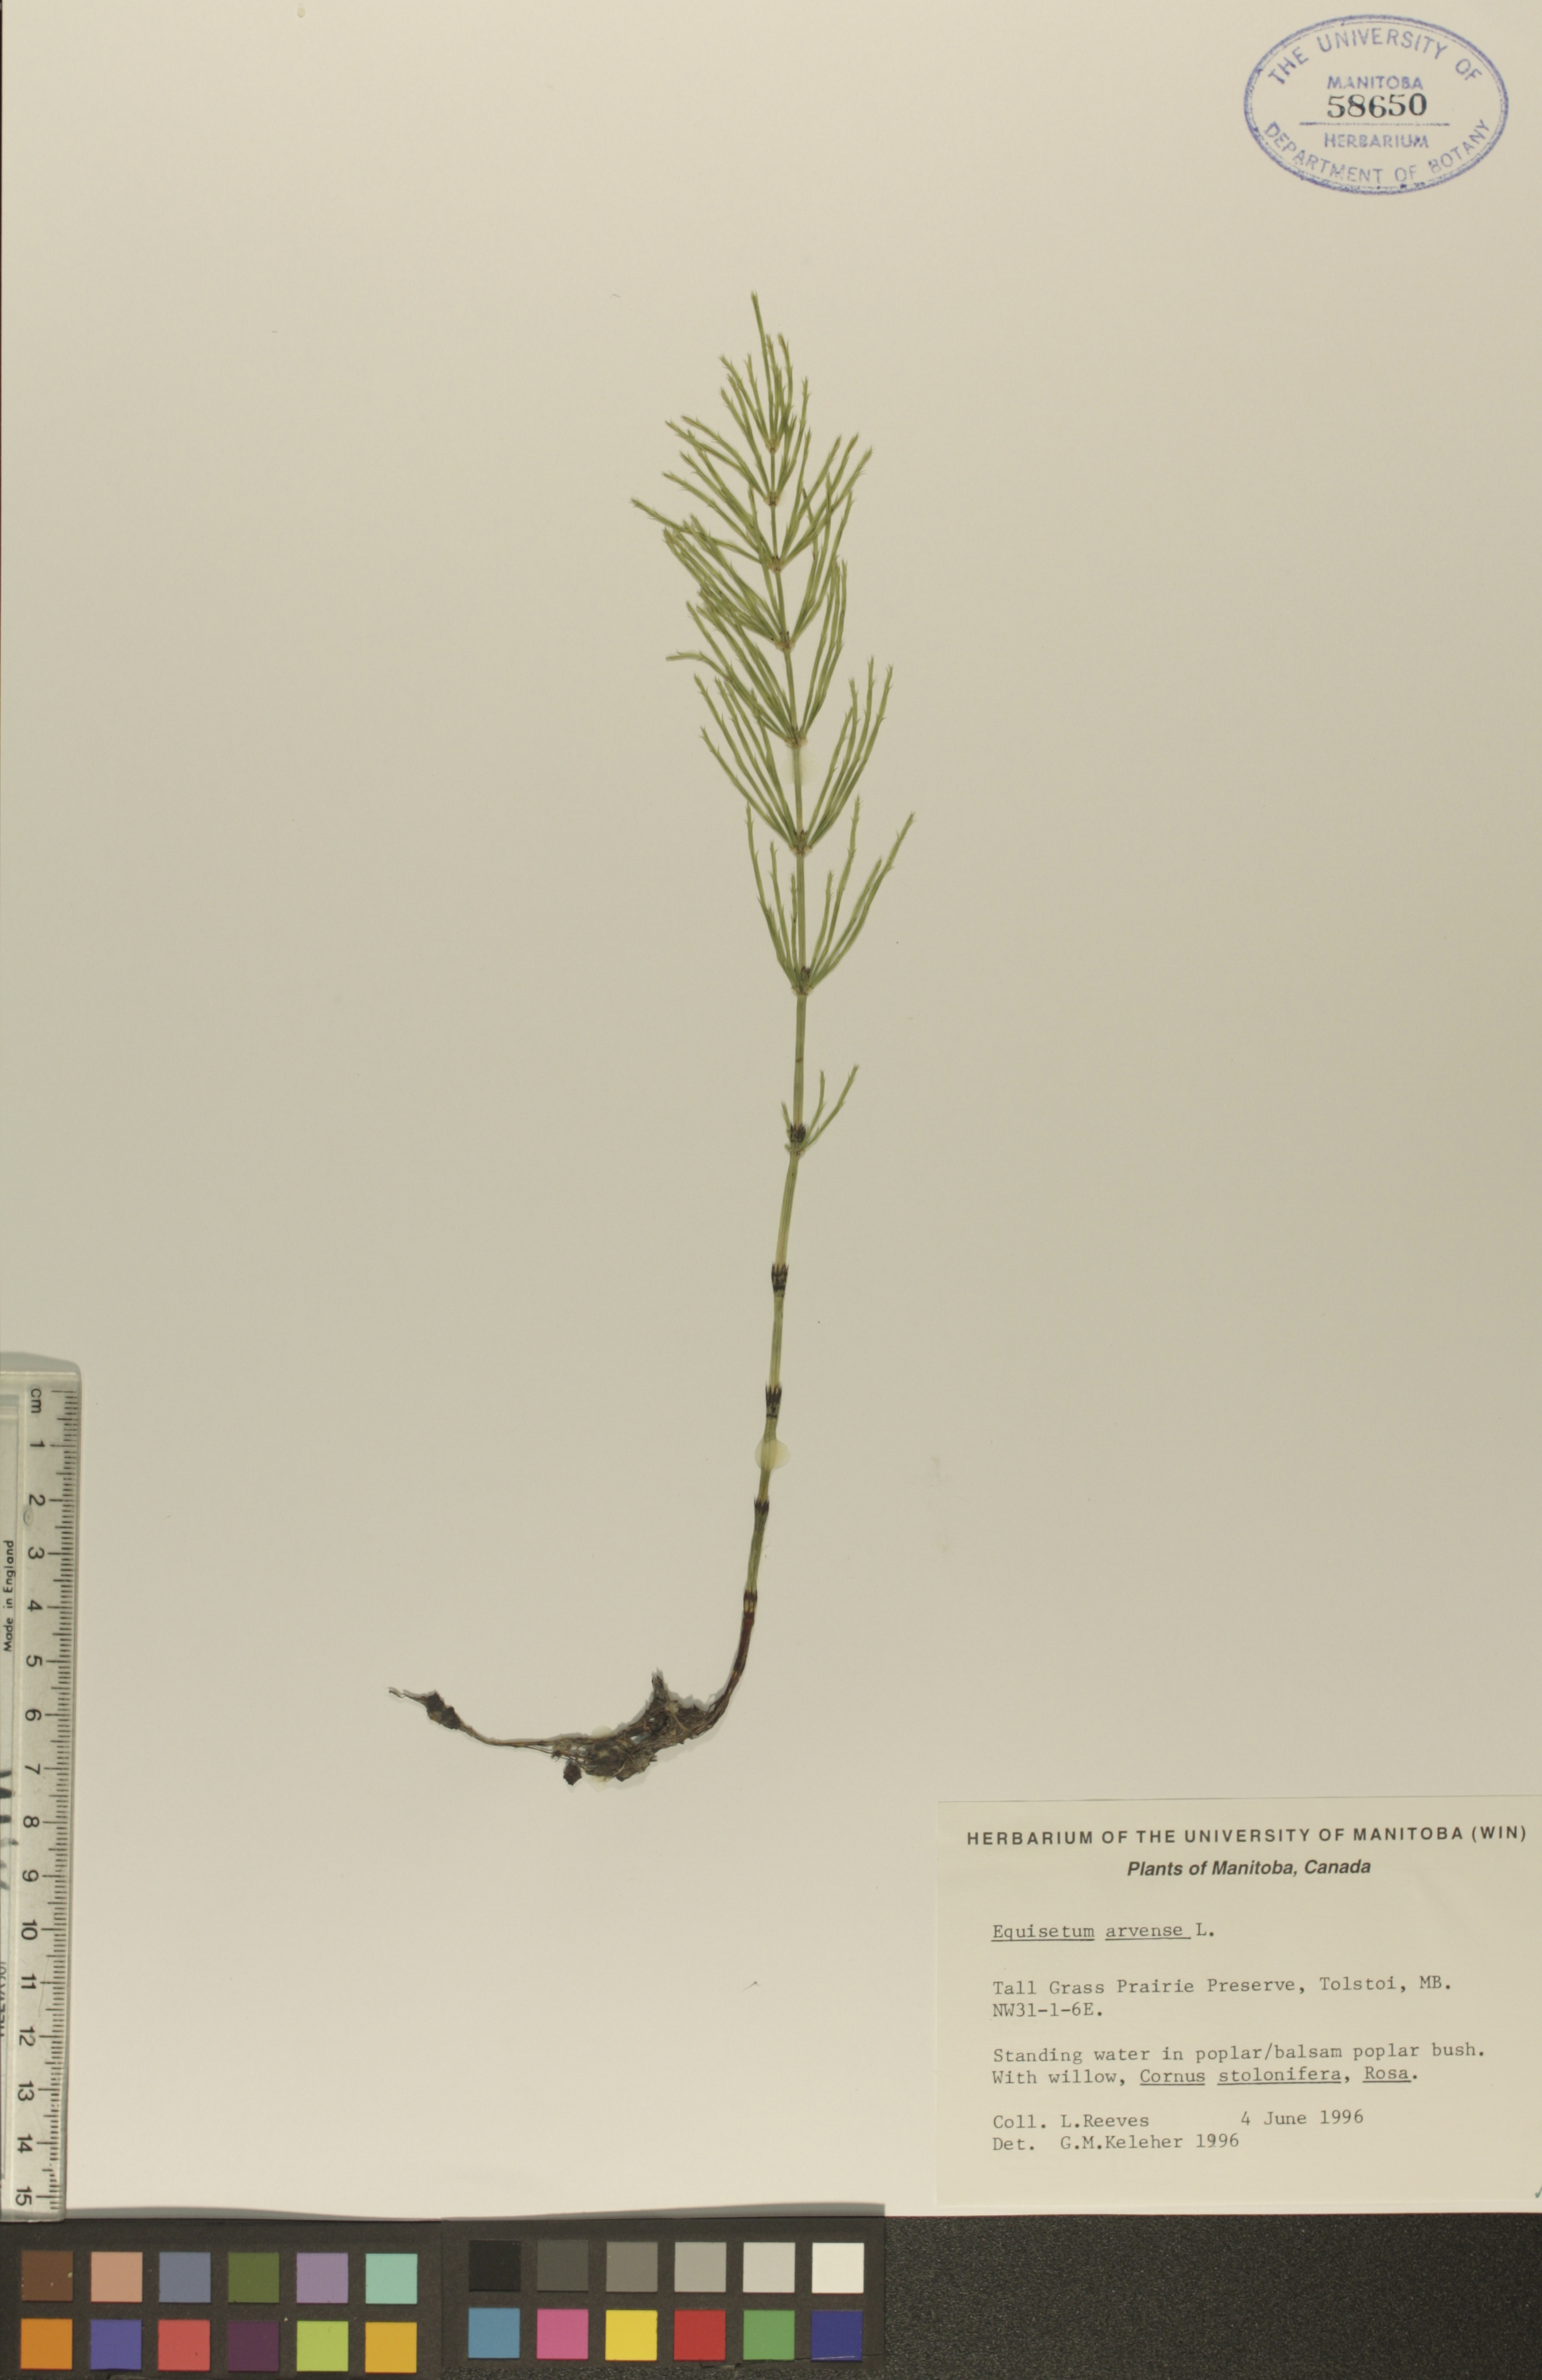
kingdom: Plantae
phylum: Tracheophyta
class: Polypodiopsida
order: Equisetales
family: Equisetaceae
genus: Equisetum
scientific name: Equisetum arvense
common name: Field horsetail
